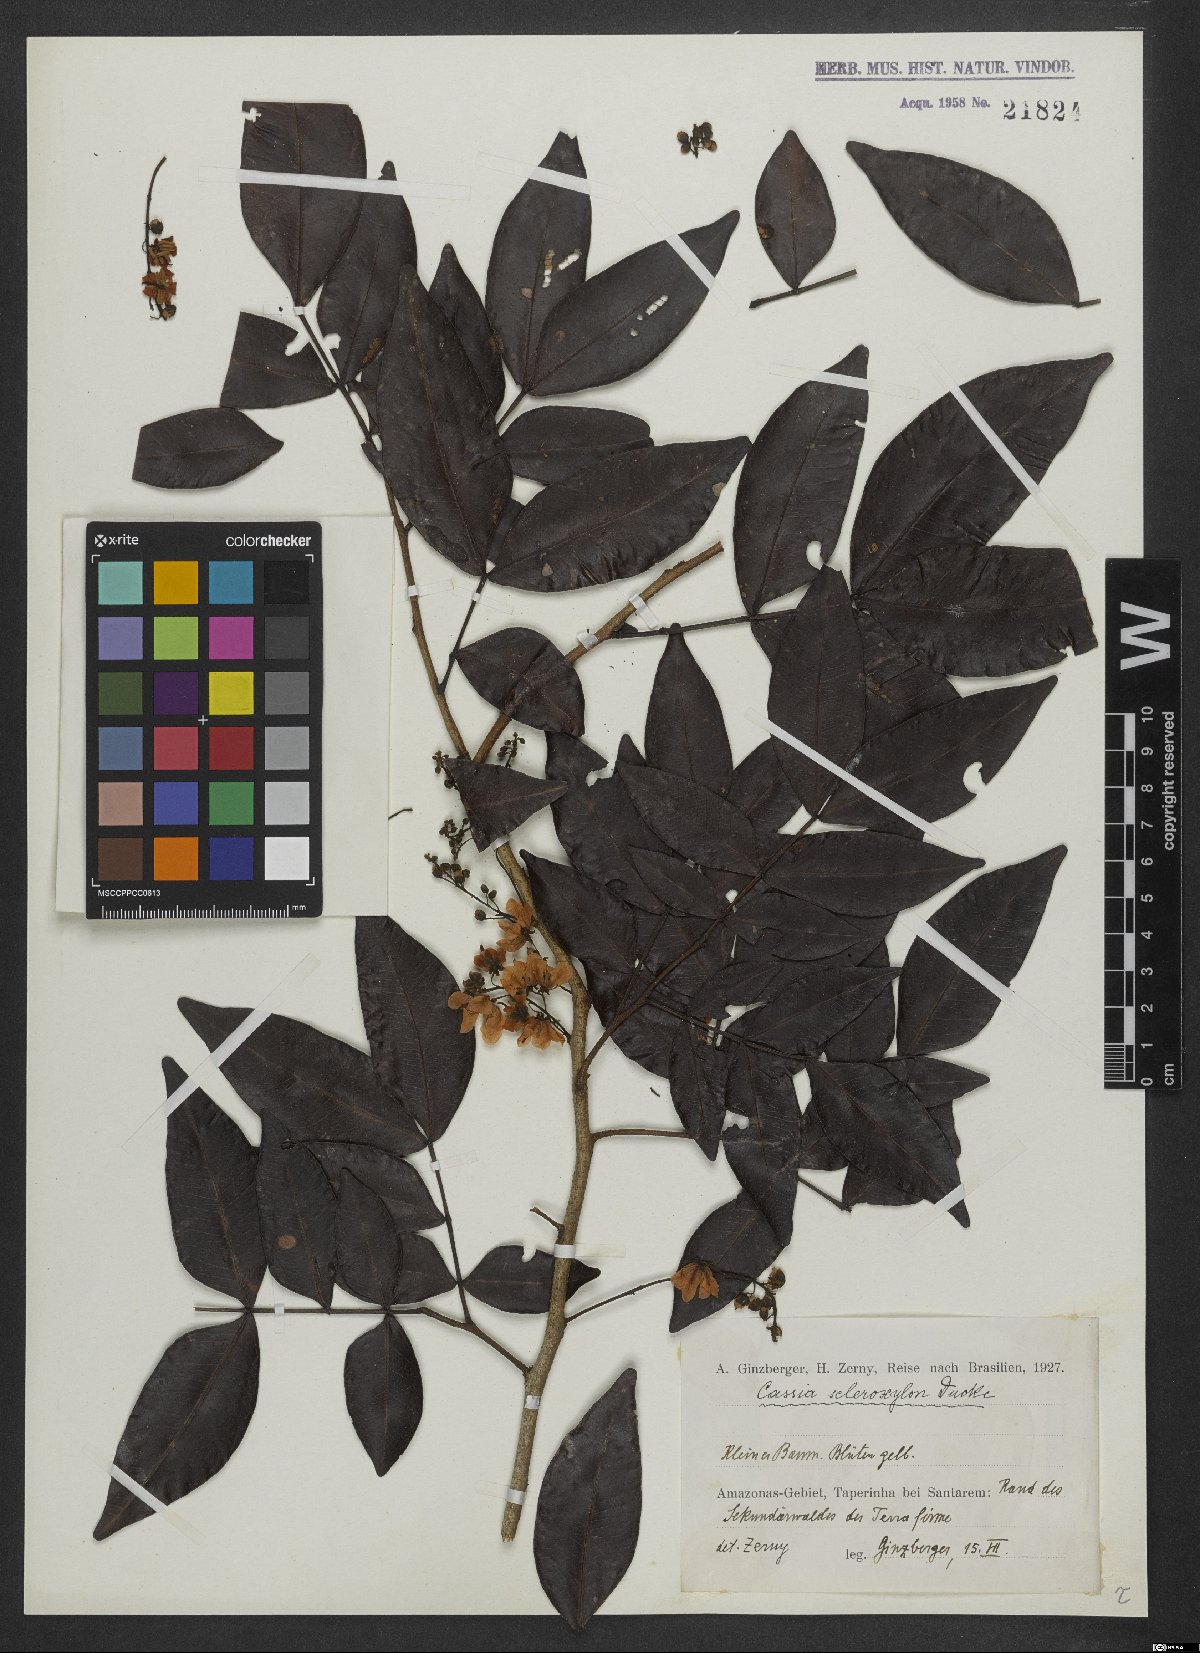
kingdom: Plantae
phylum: Tracheophyta
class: Magnoliopsida
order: Fabales
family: Fabaceae
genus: Chamaecrista
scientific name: Chamaecrista scleroxylon
